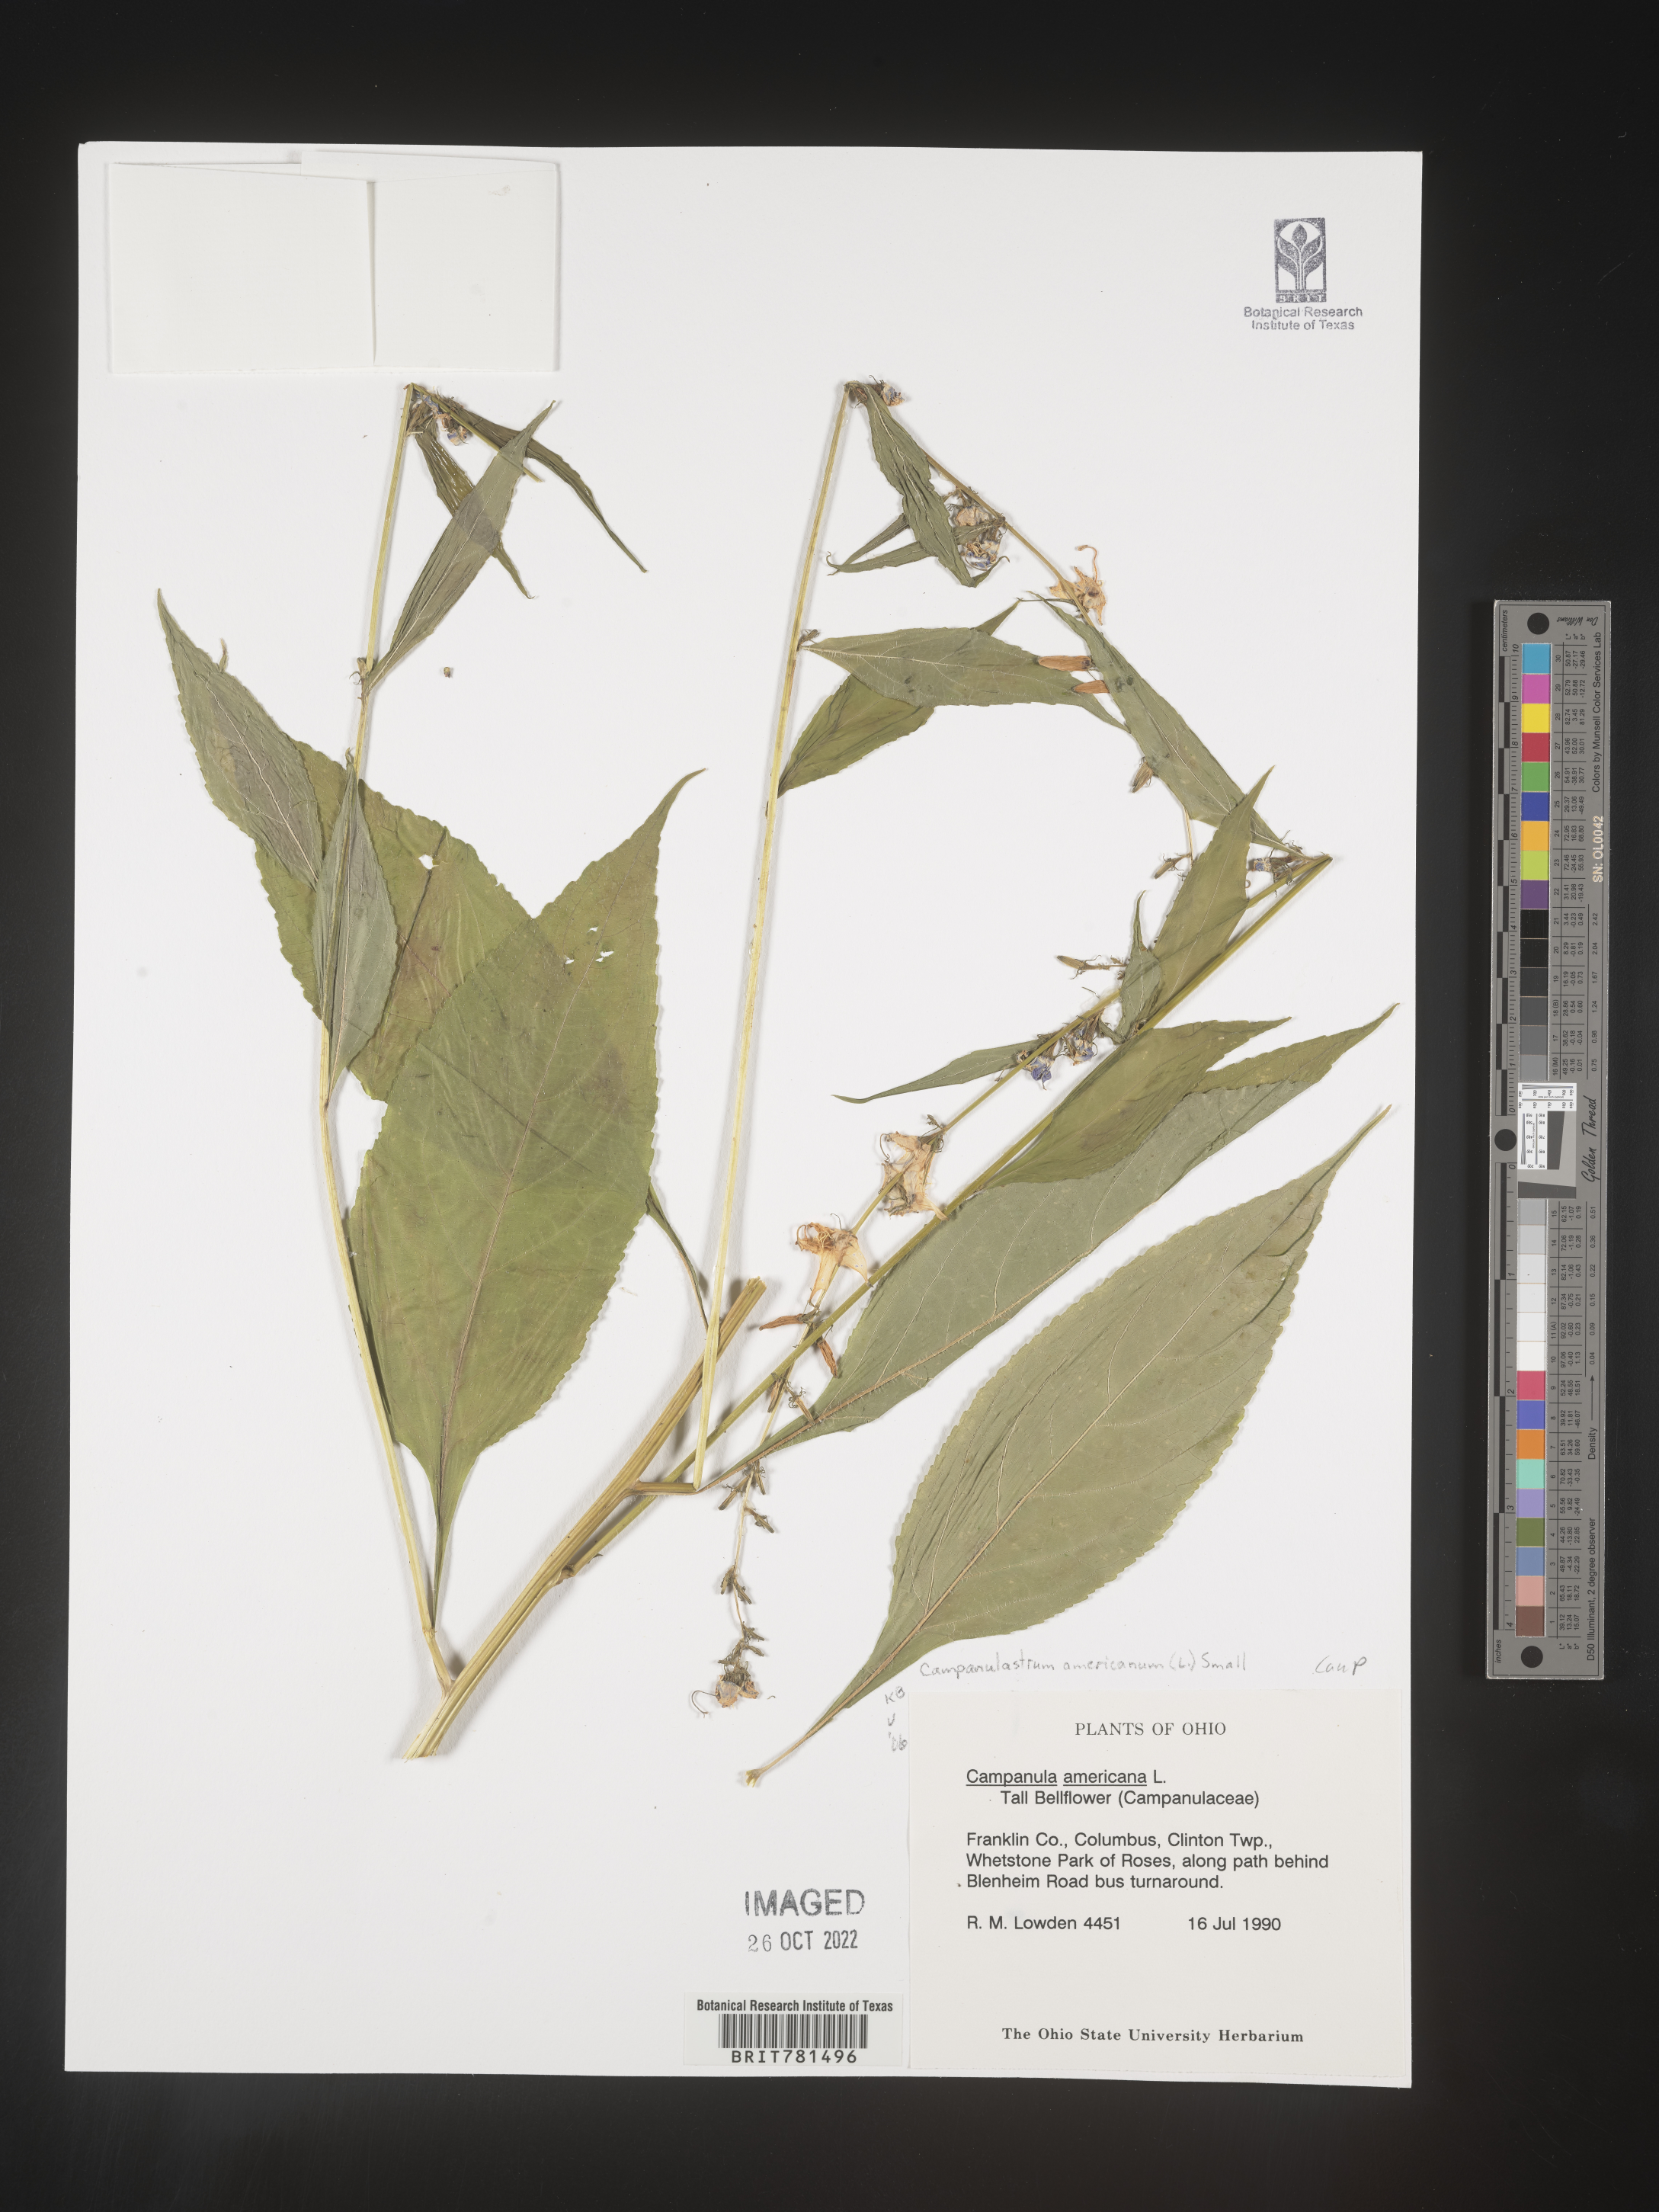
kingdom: Plantae
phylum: Tracheophyta
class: Magnoliopsida
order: Asterales
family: Campanulaceae
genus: Campanula
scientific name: Campanula americana
